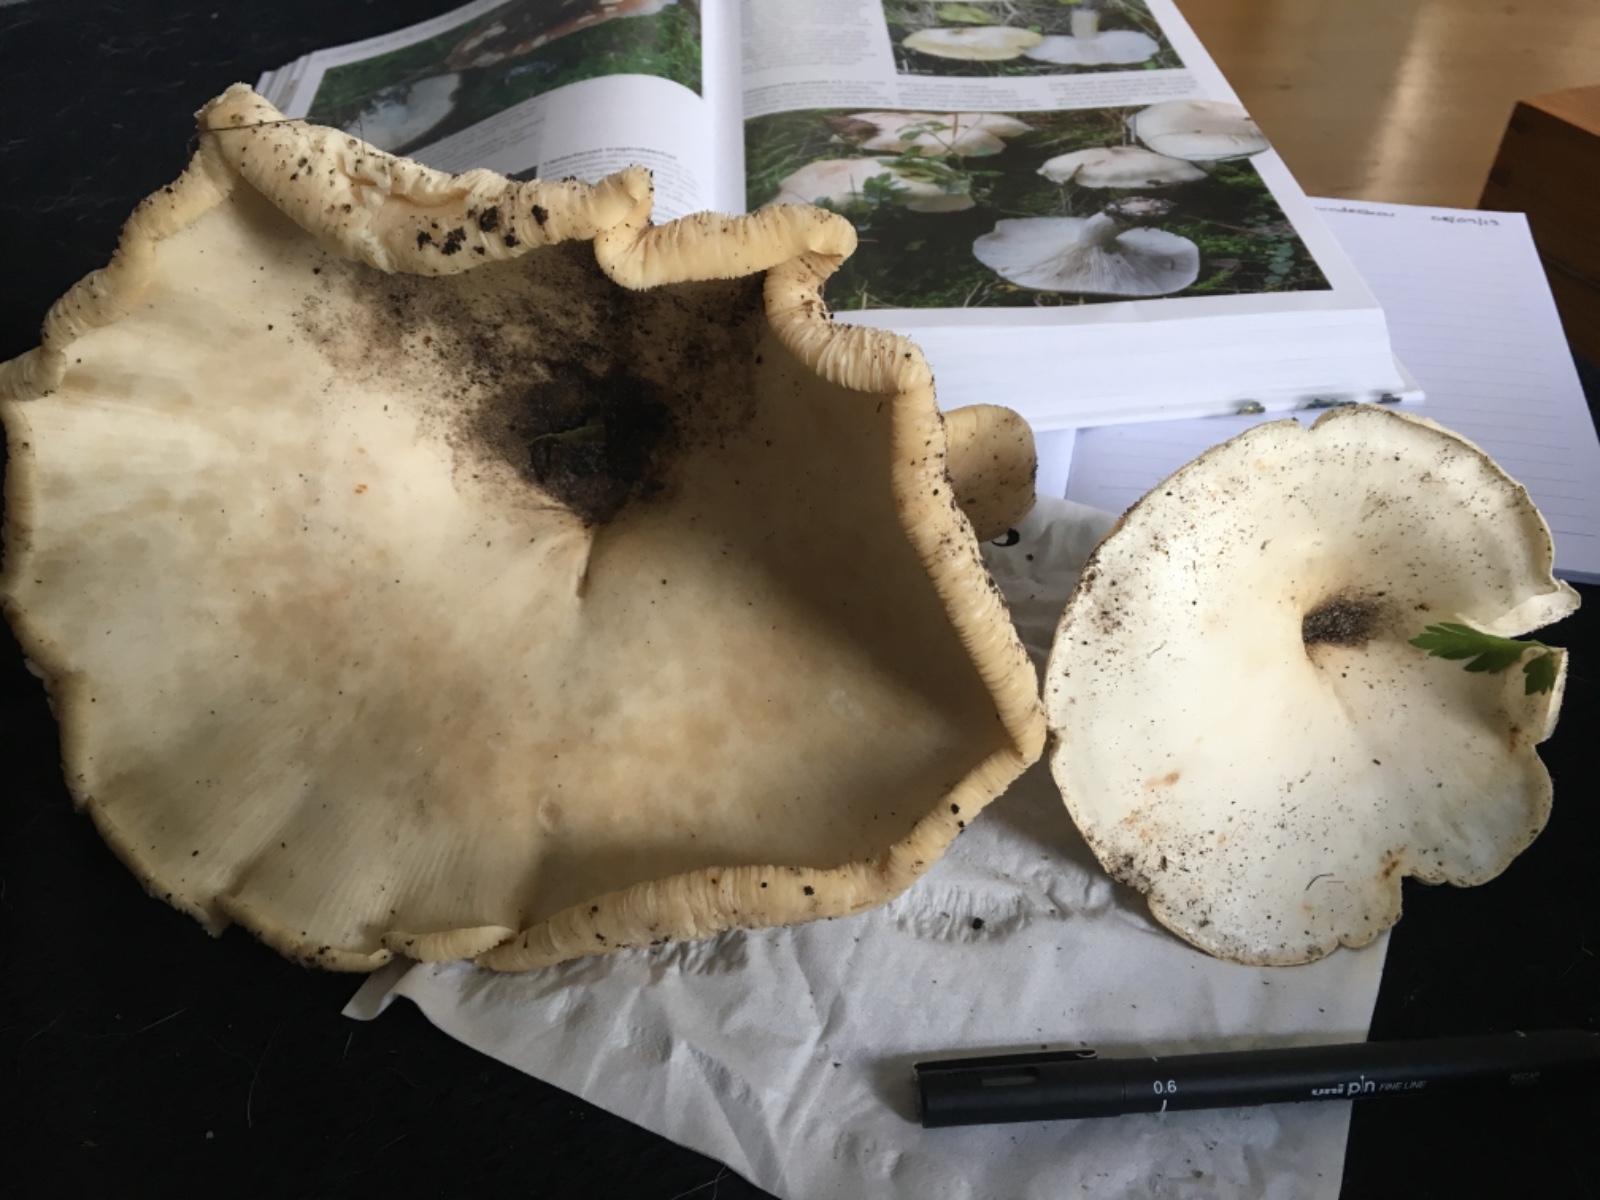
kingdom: Fungi
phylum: Basidiomycota
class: Agaricomycetes
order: Agaricales
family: Tricholomataceae
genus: Aspropaxillus
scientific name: Aspropaxillus giganteus
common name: kæmpe-tragtridderhat
